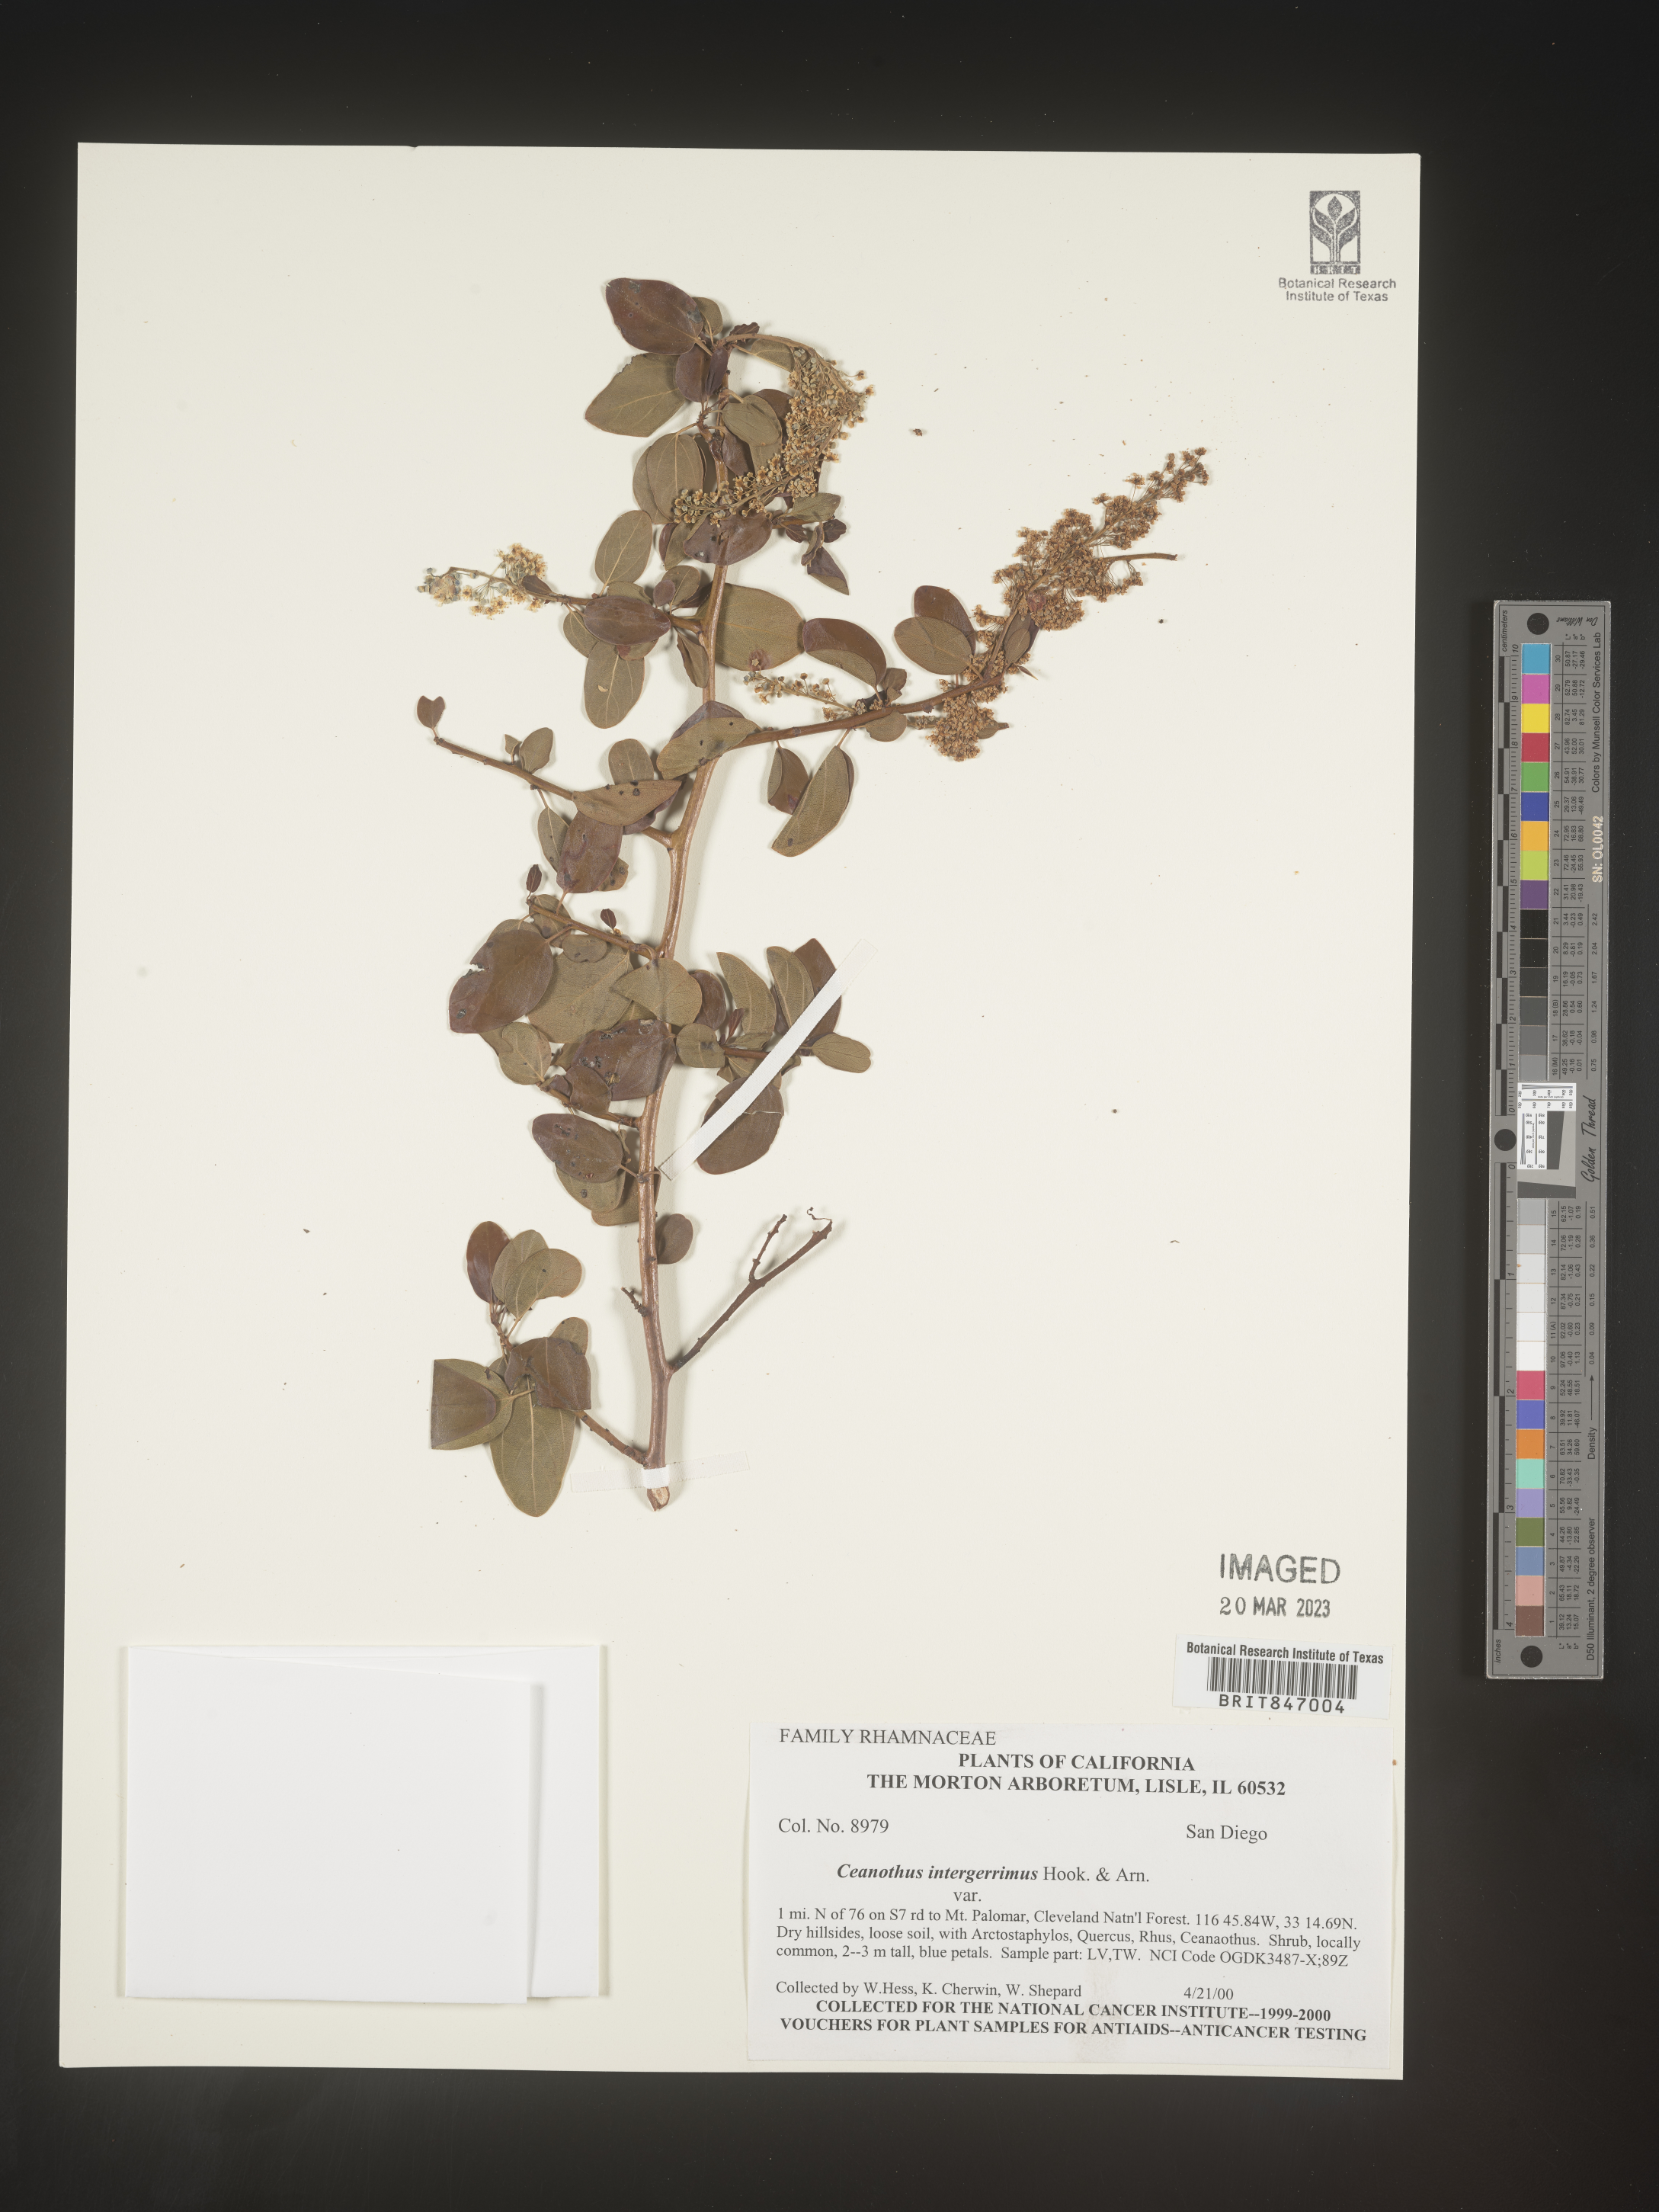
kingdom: Plantae
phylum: Tracheophyta
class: Magnoliopsida
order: Rosales
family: Rhamnaceae
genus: Ceanothus
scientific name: Ceanothus integerrimus
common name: Deerbrush ceanothus
